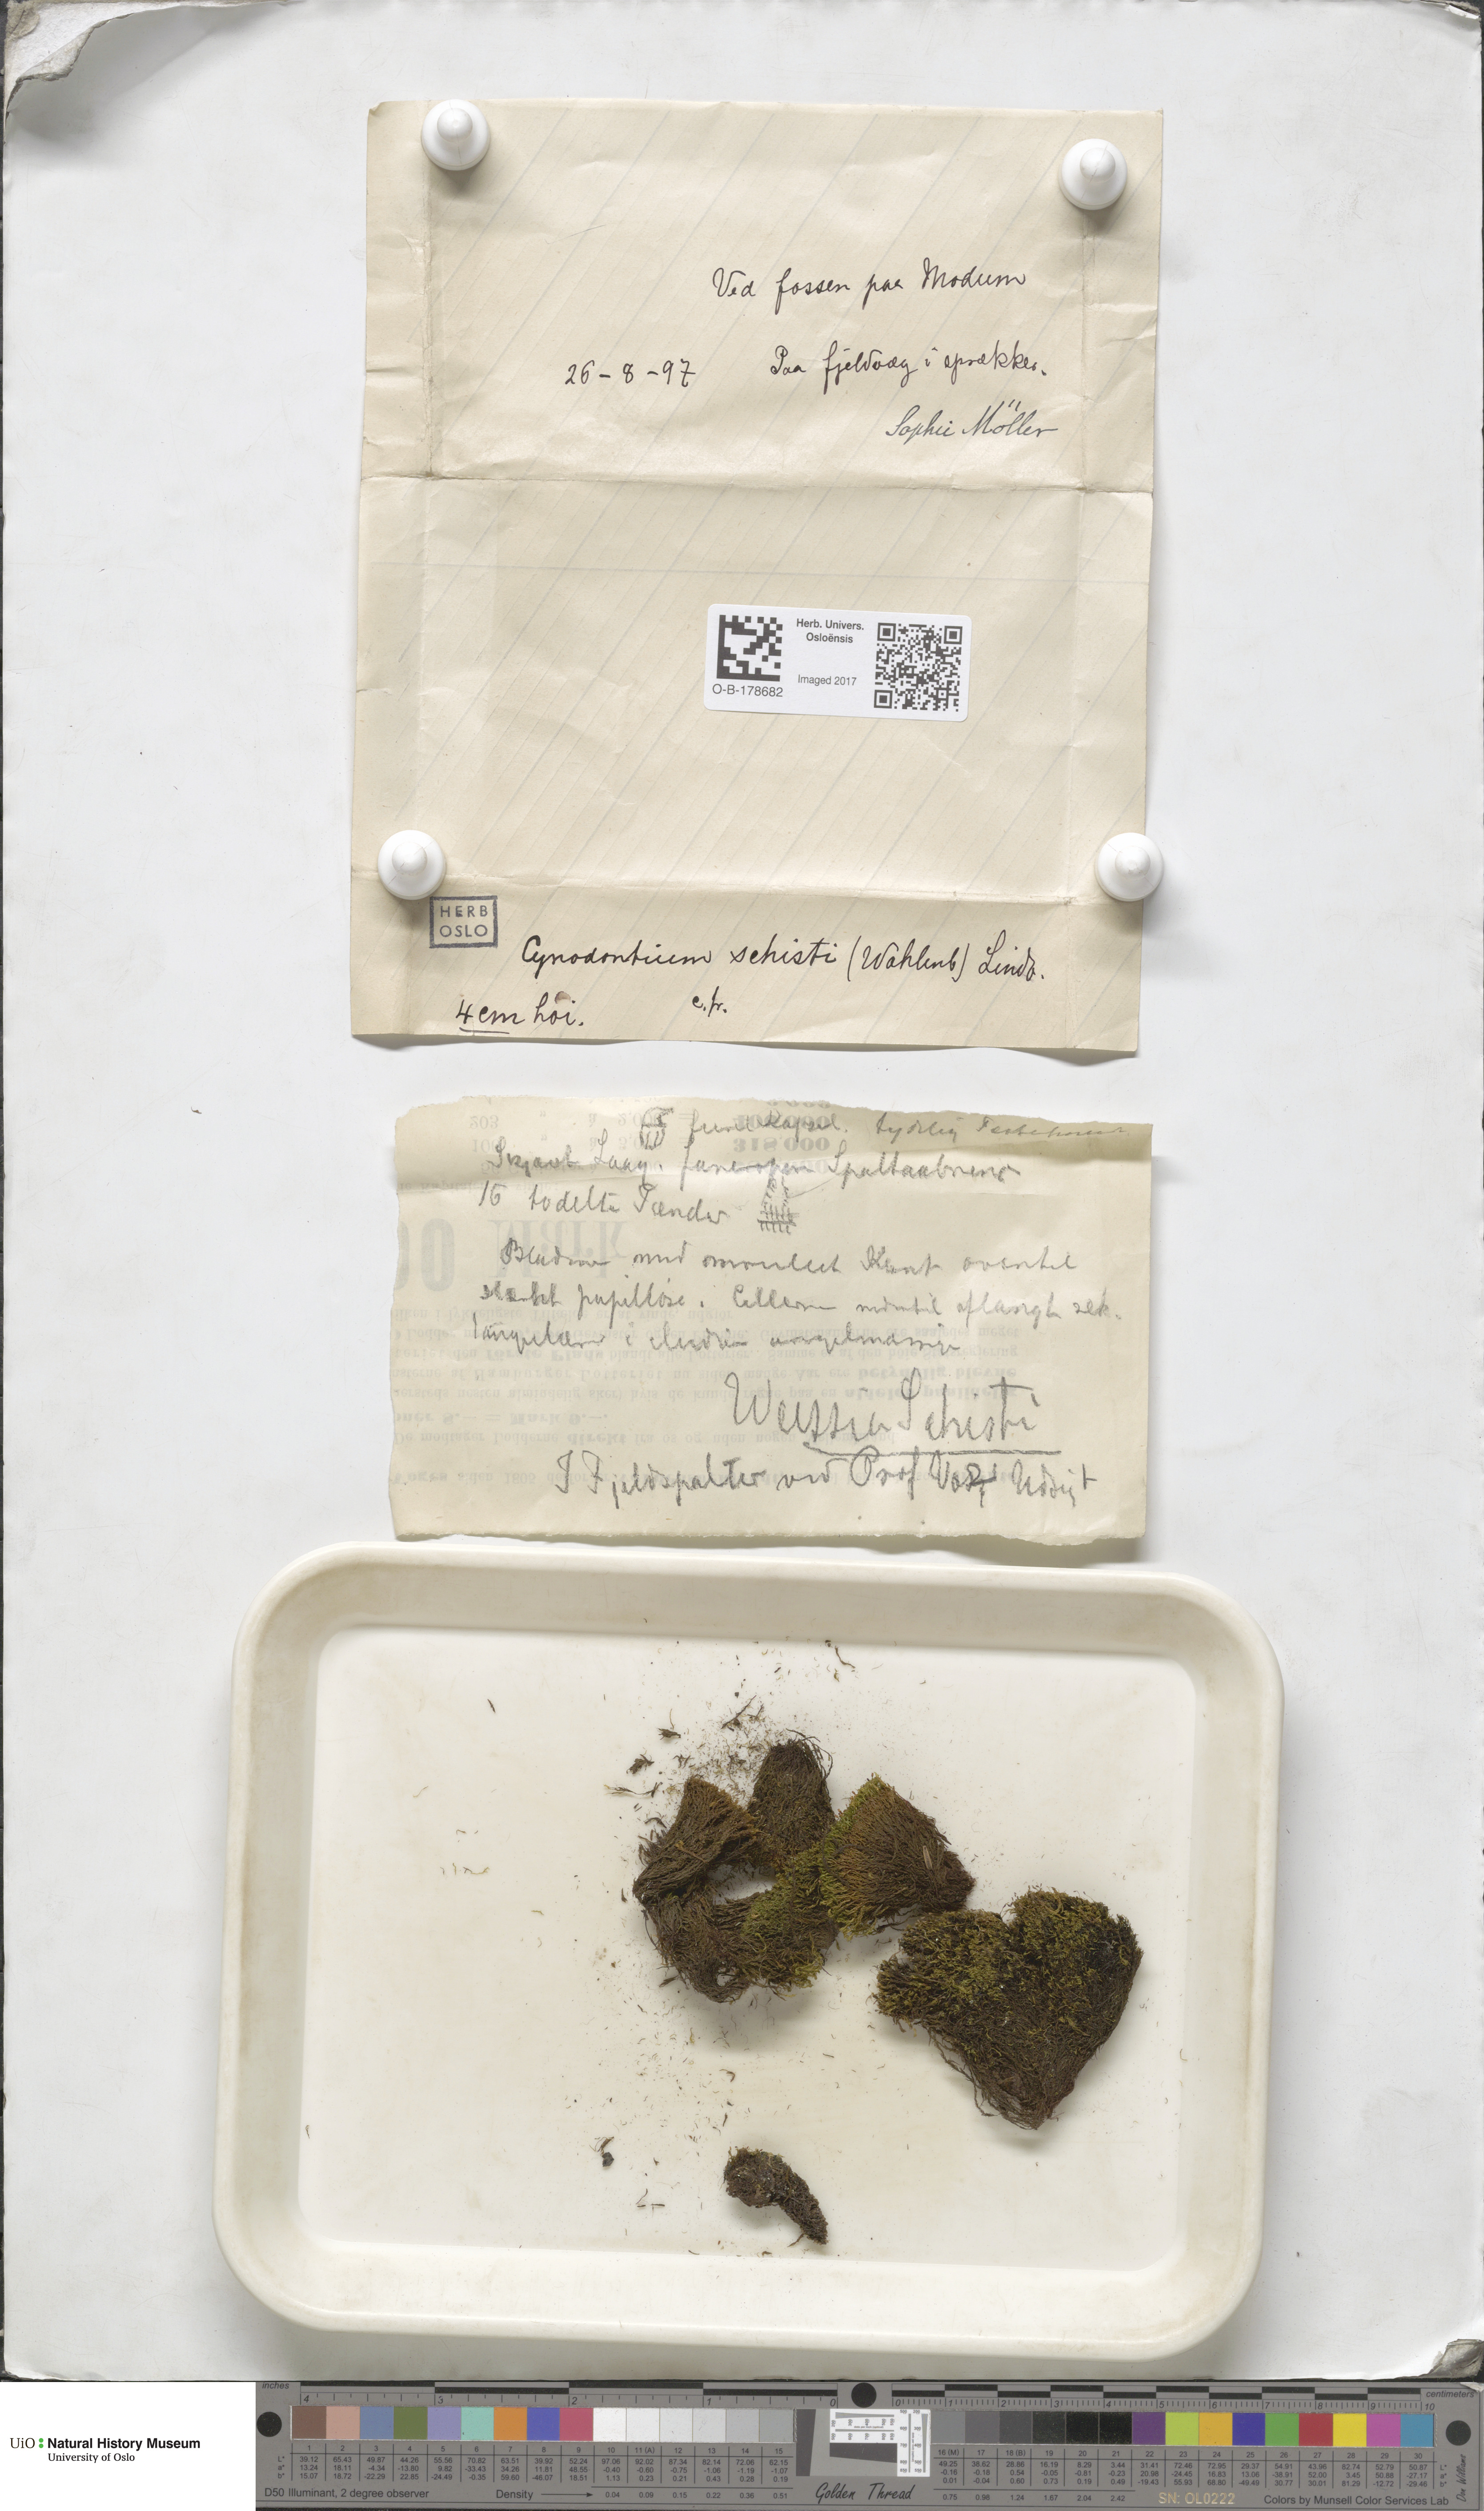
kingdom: Plantae
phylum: Bryophyta
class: Bryopsida
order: Dicranales
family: Rhabdoweisiaceae
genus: Cnestrum
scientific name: Cnestrum schisti
